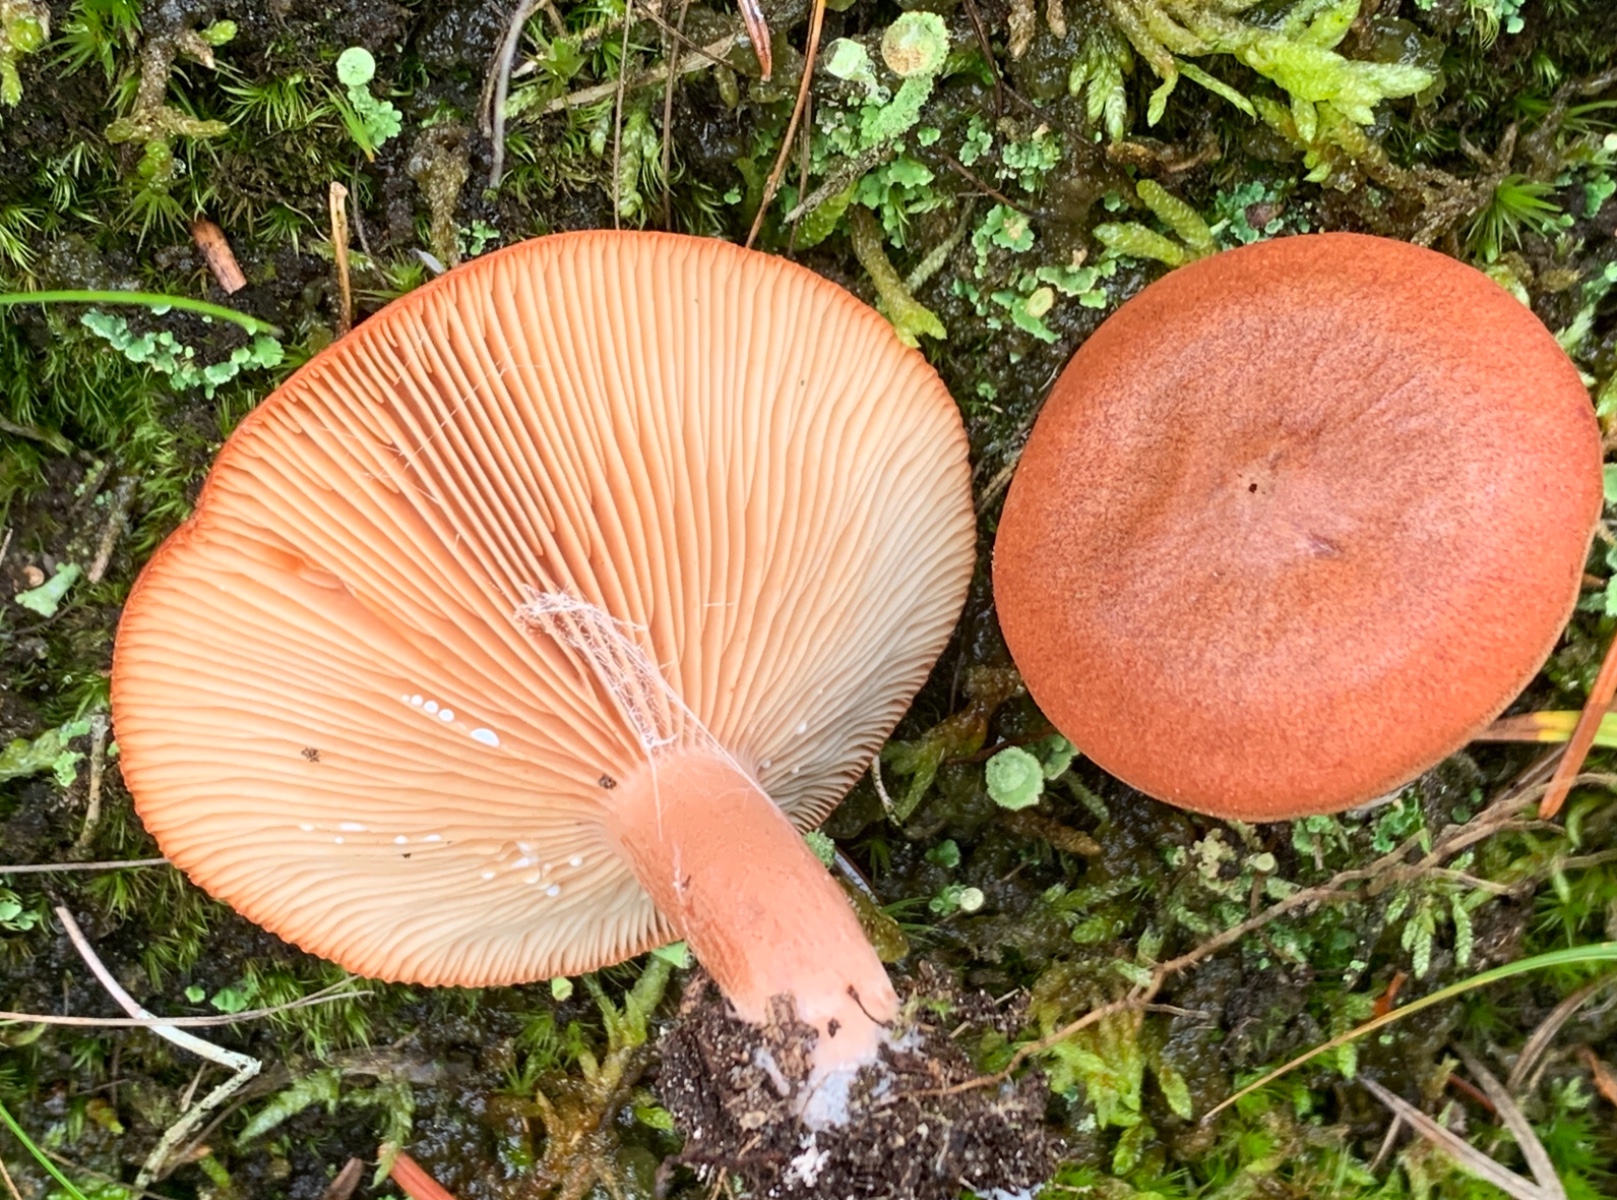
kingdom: Fungi
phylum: Basidiomycota
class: Agaricomycetes
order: Russulales
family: Russulaceae
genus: Lactarius
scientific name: Lactarius rufus
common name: rødbrun mælkehat
